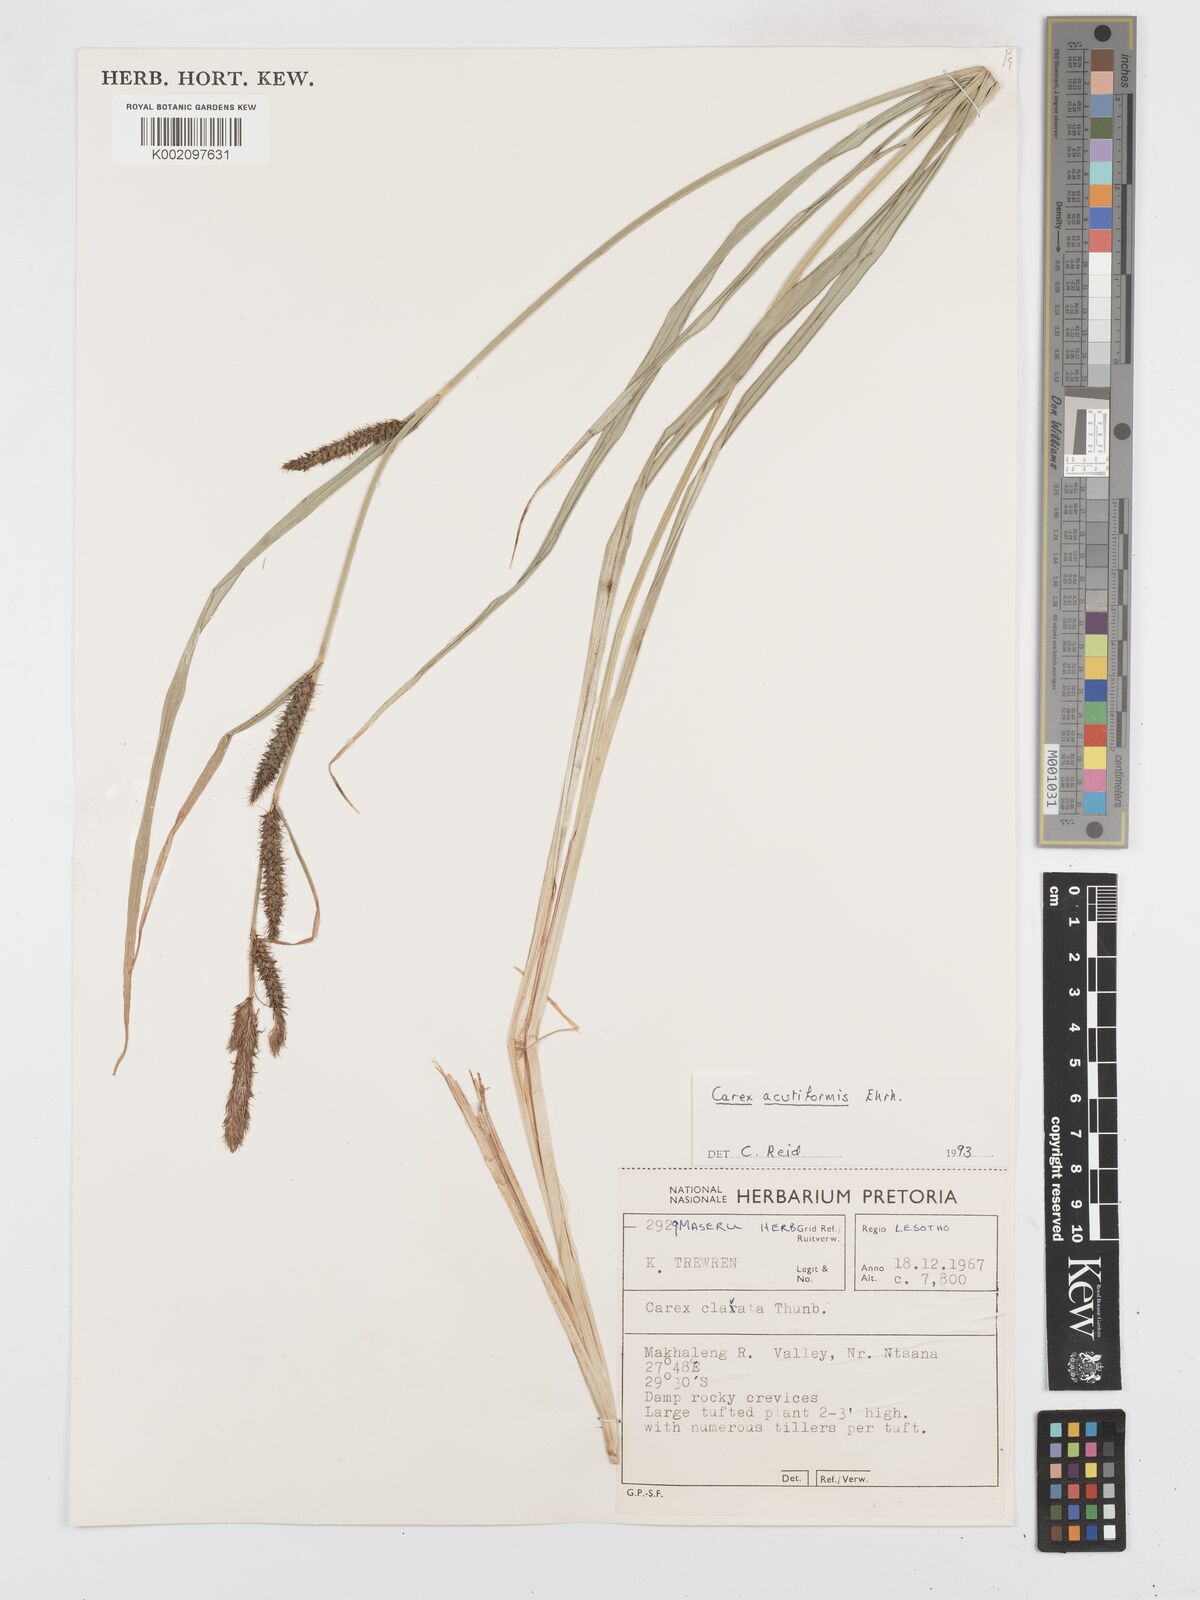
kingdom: Plantae
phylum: Tracheophyta
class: Liliopsida
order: Poales
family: Cyperaceae
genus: Carex
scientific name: Carex acutiformis
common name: Lesser pond-sedge
